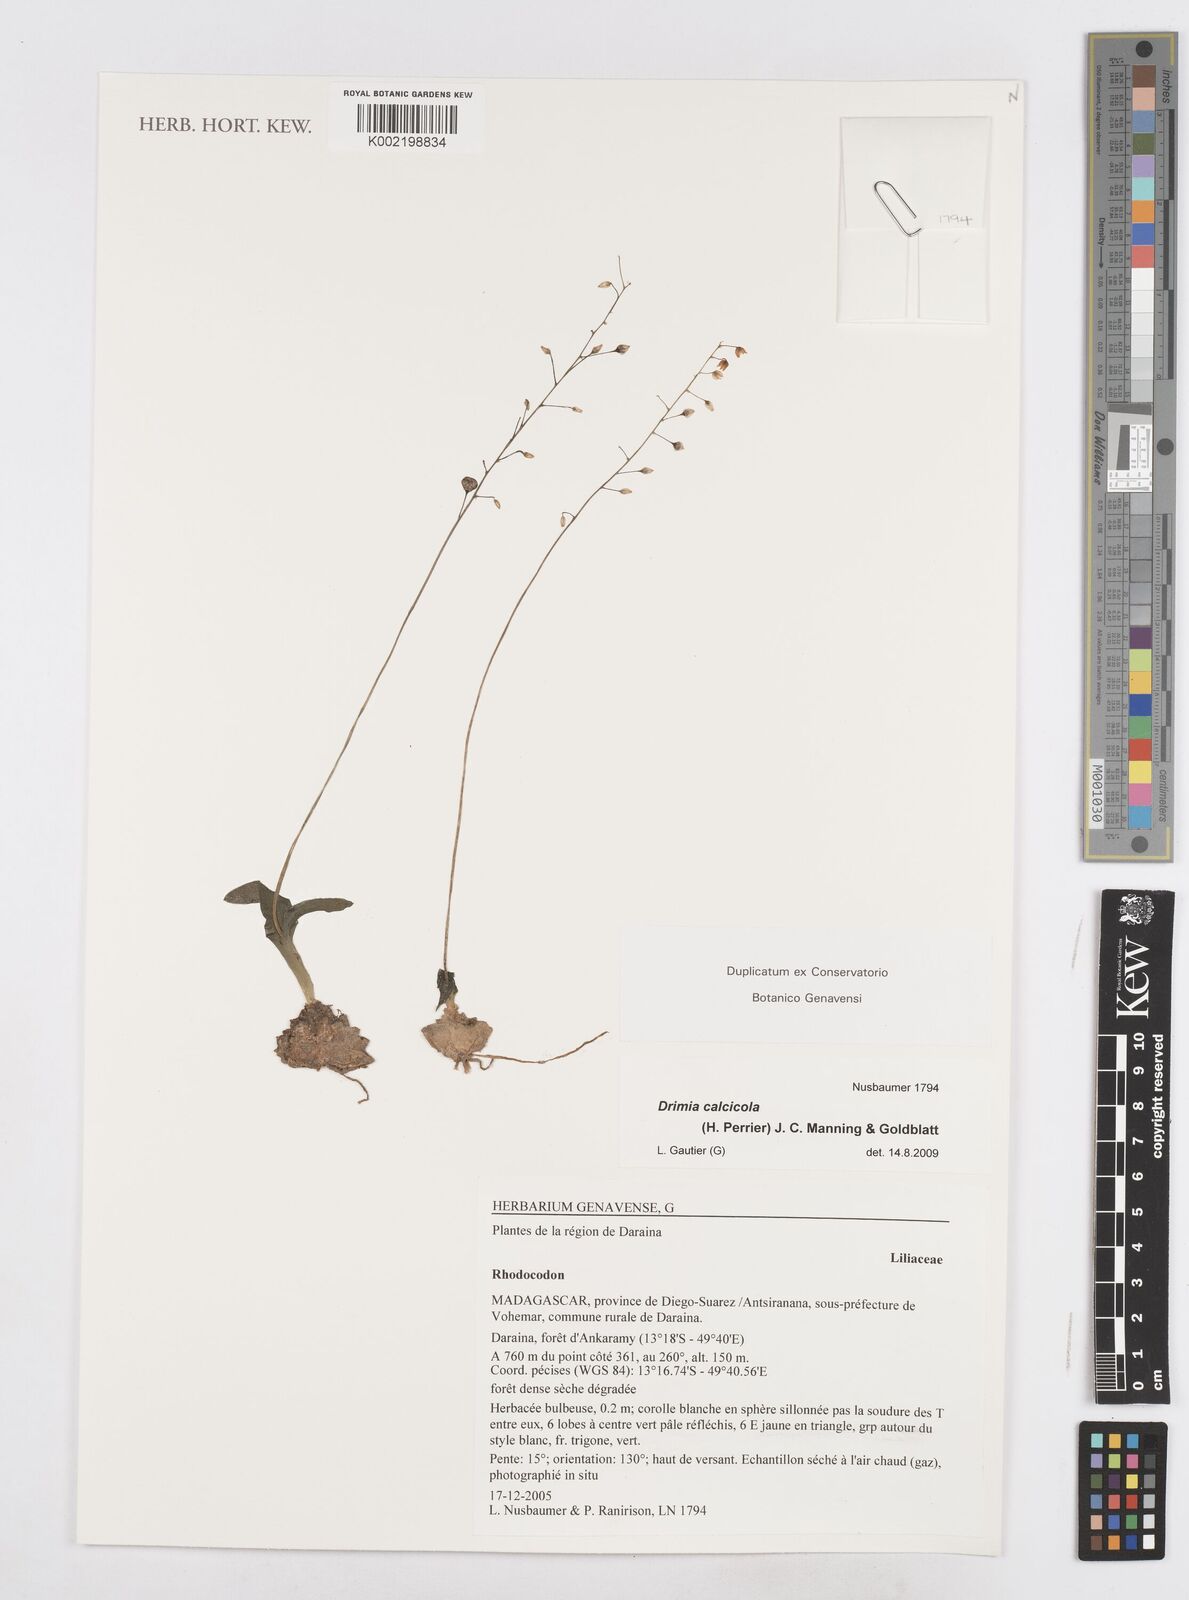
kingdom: Plantae
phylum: Tracheophyta
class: Liliopsida
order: Asparagales
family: Asparagaceae
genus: Drimia
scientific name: Drimia Rhodocodon calcicola
